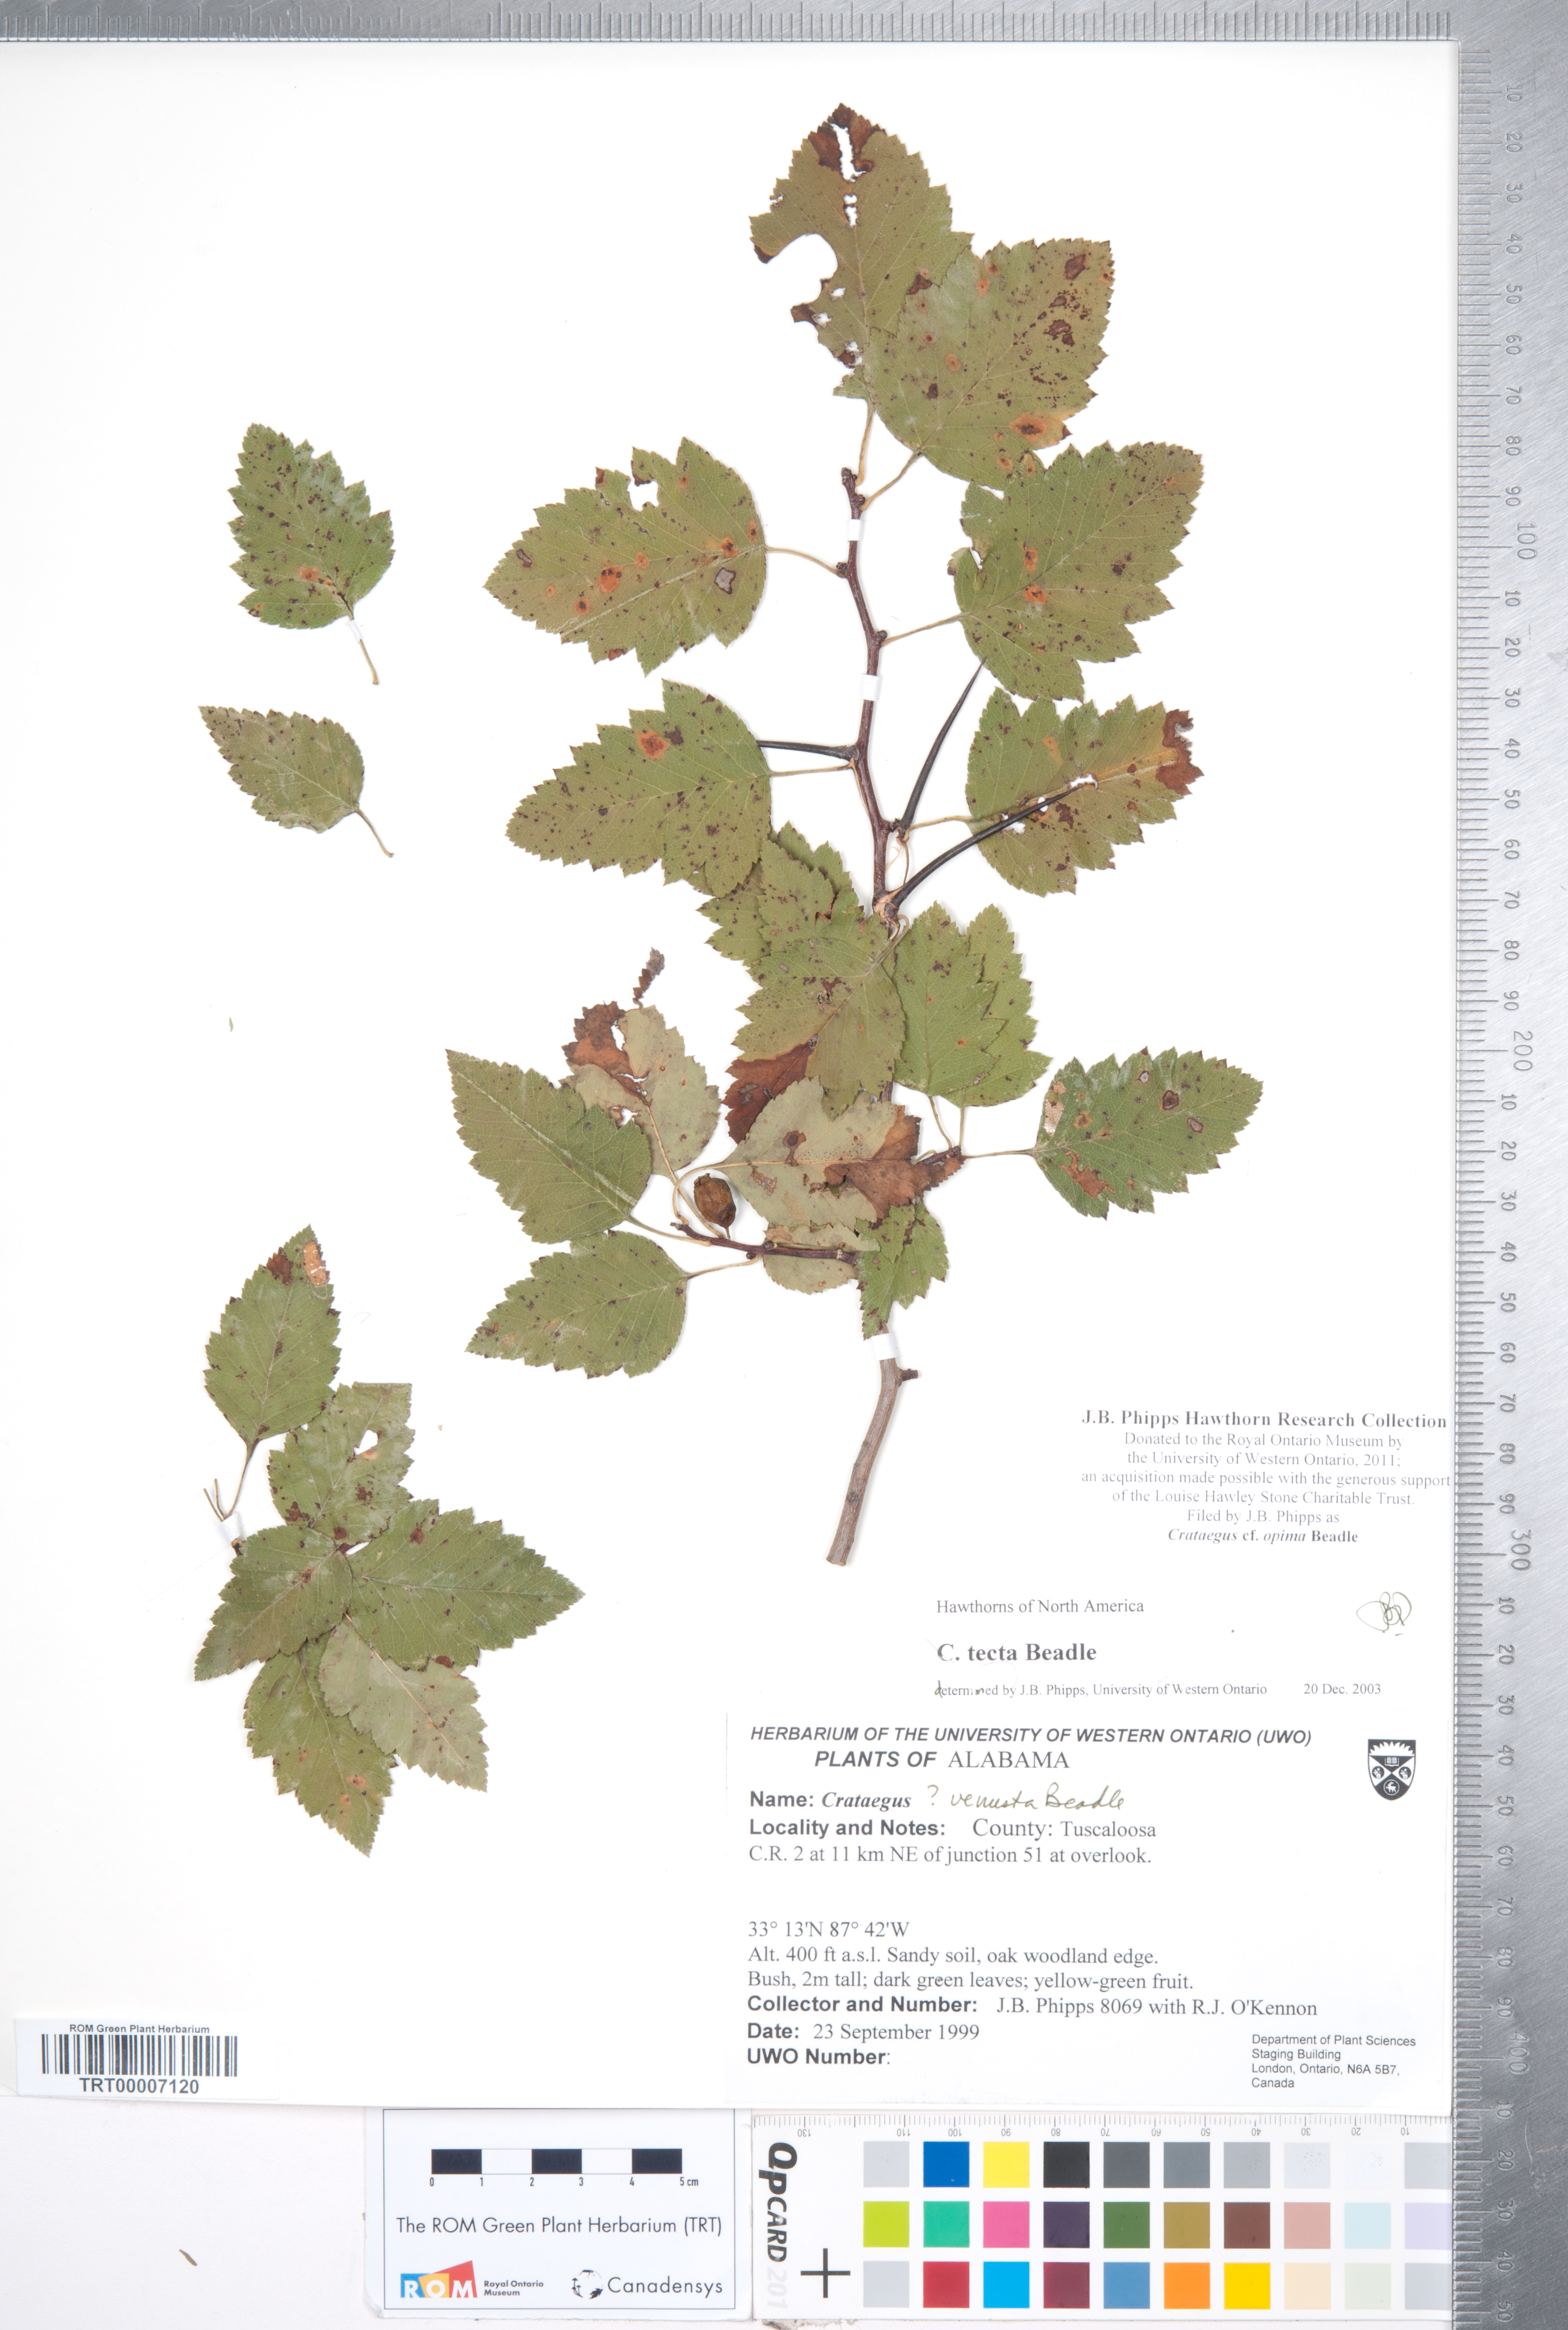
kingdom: Plantae
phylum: Tracheophyta
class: Magnoliopsida
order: Rosales
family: Rosaceae
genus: Crataegus
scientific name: Crataegus pulcherrima
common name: Beautiful hawthorn
